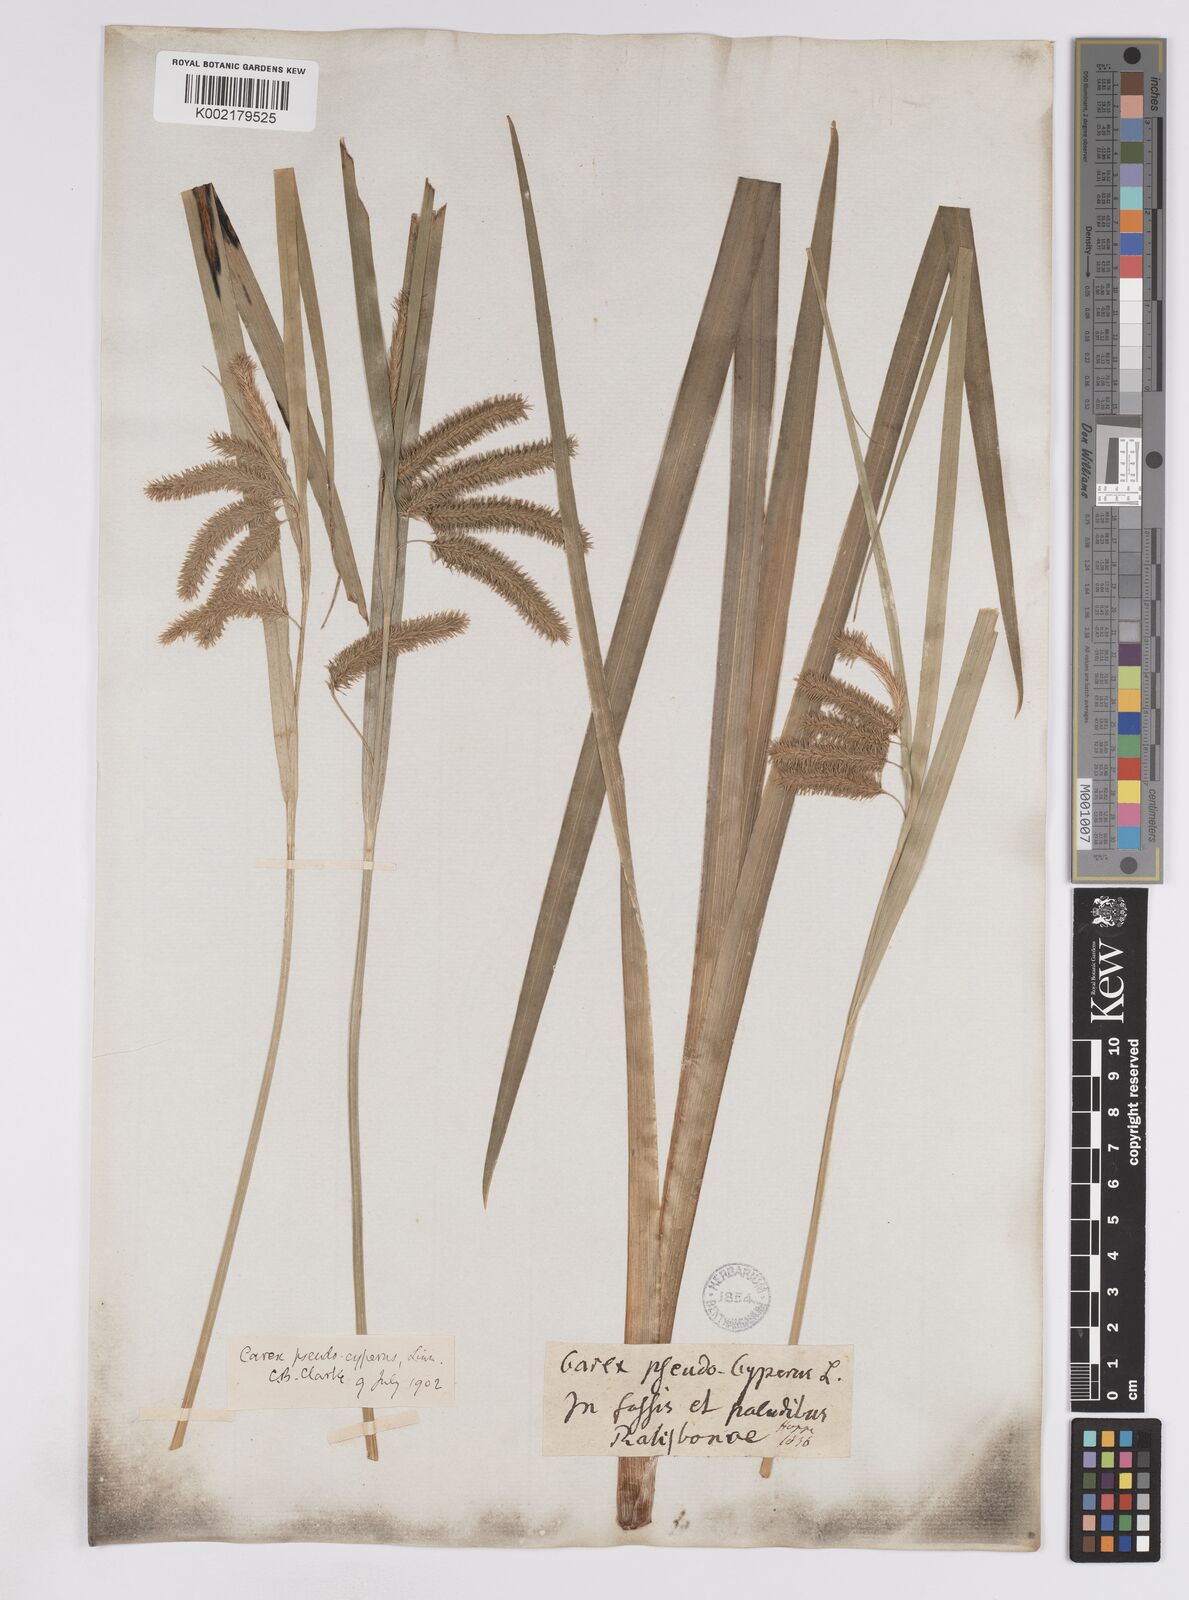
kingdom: Plantae
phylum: Tracheophyta
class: Liliopsida
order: Poales
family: Cyperaceae
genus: Carex
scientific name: Carex pseudocyperus
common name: Cyperus sedge
